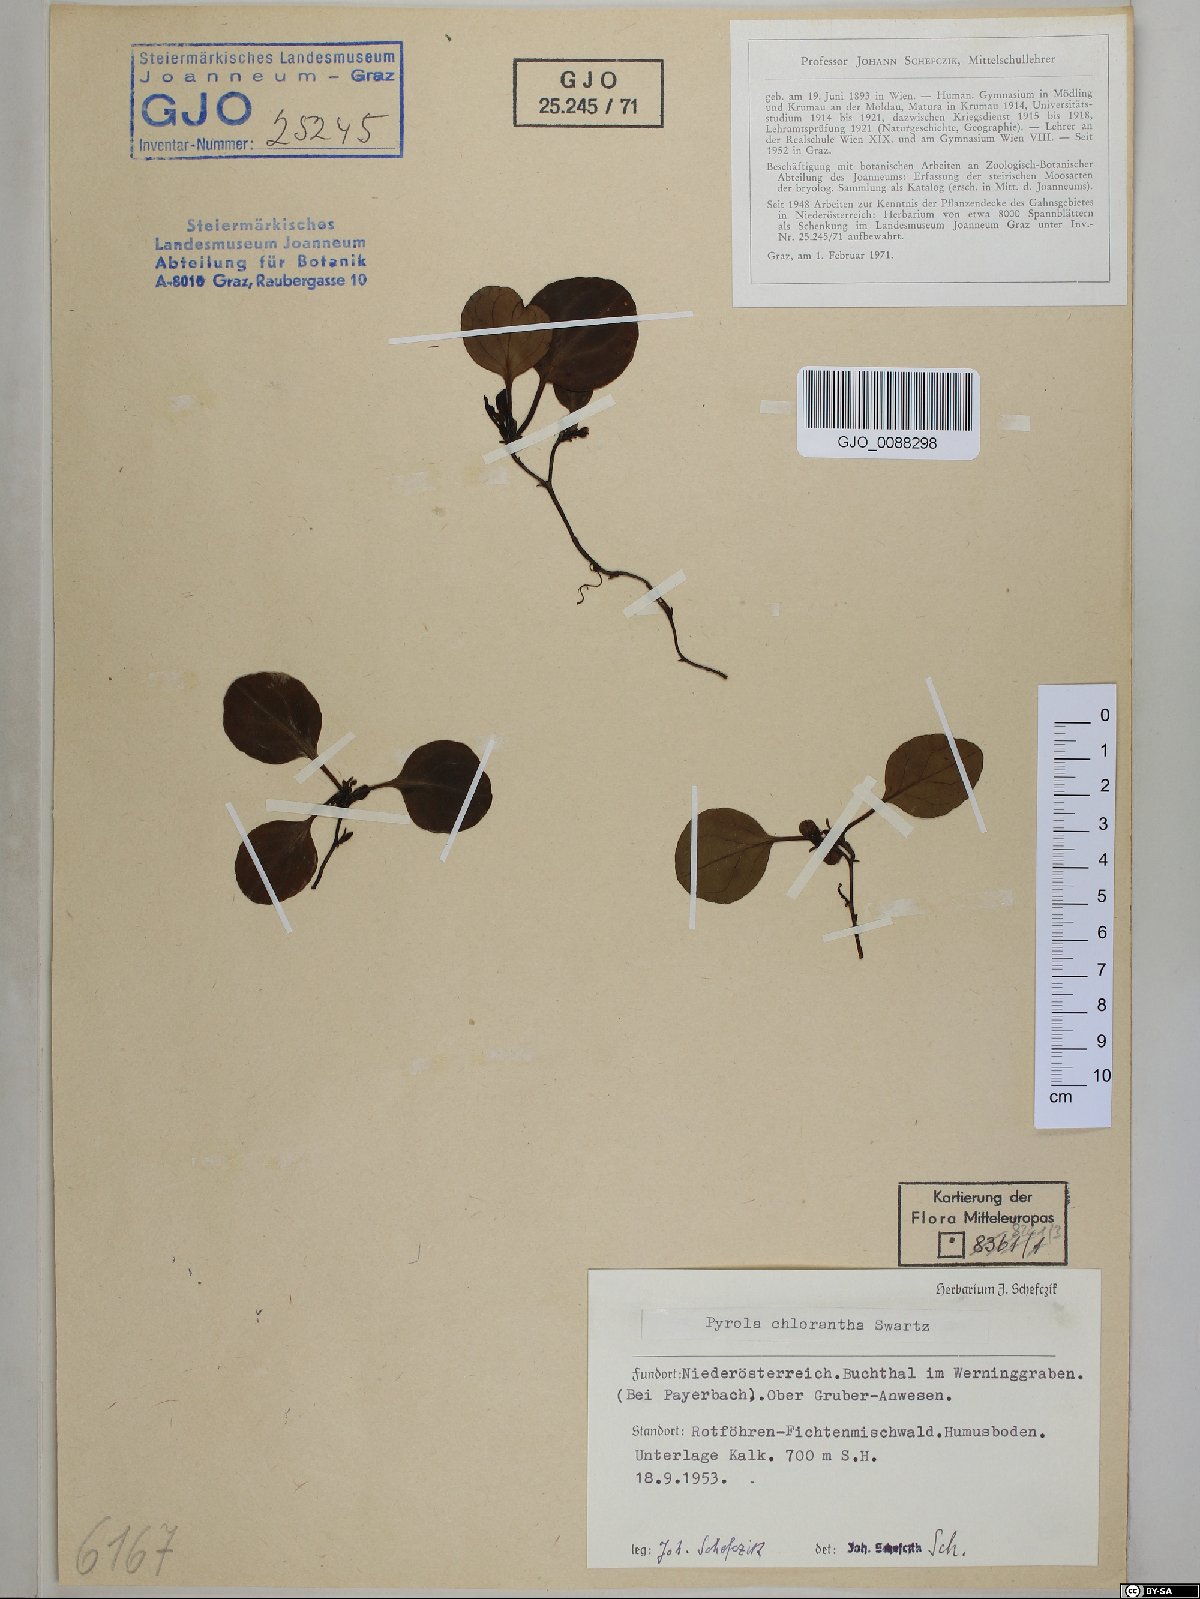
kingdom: Plantae
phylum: Tracheophyta
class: Magnoliopsida
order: Ericales
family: Ericaceae
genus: Pyrola
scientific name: Pyrola chlorantha
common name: Green wintergreen
